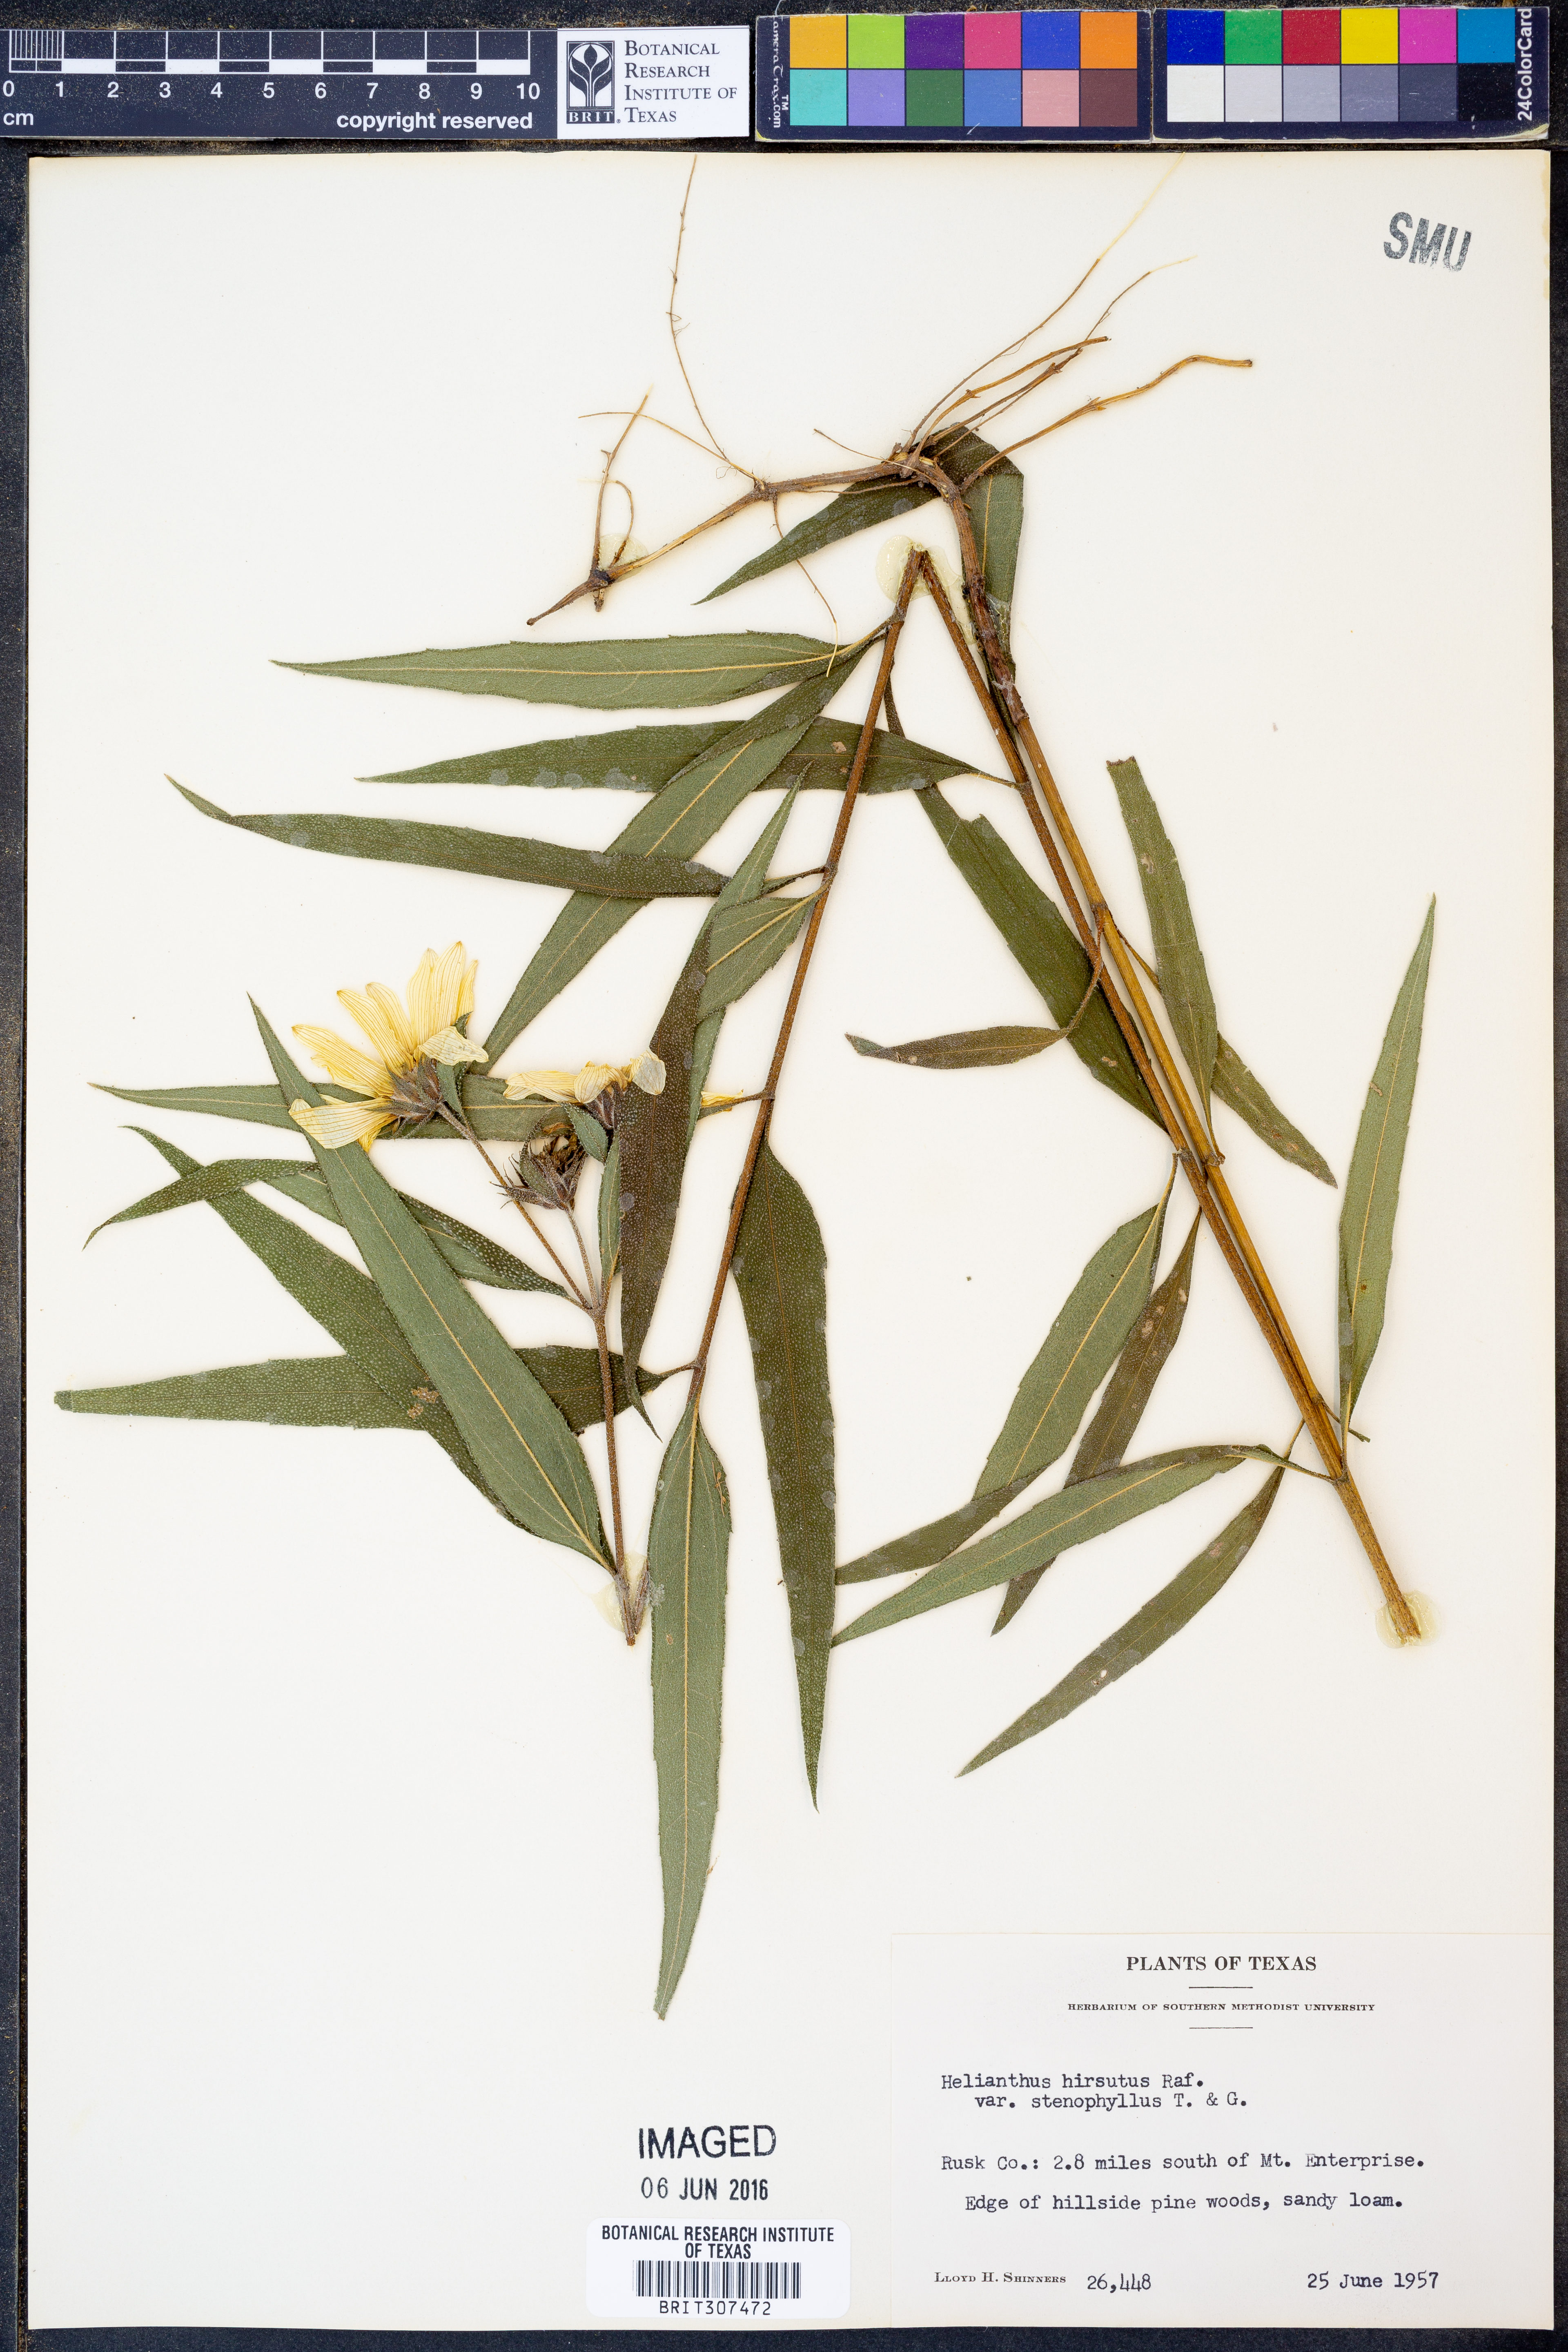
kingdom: Plantae
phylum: Tracheophyta
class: Magnoliopsida
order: Asterales
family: Asteraceae
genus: Helianthus
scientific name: Helianthus hirsutus
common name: Hairy sunflower
